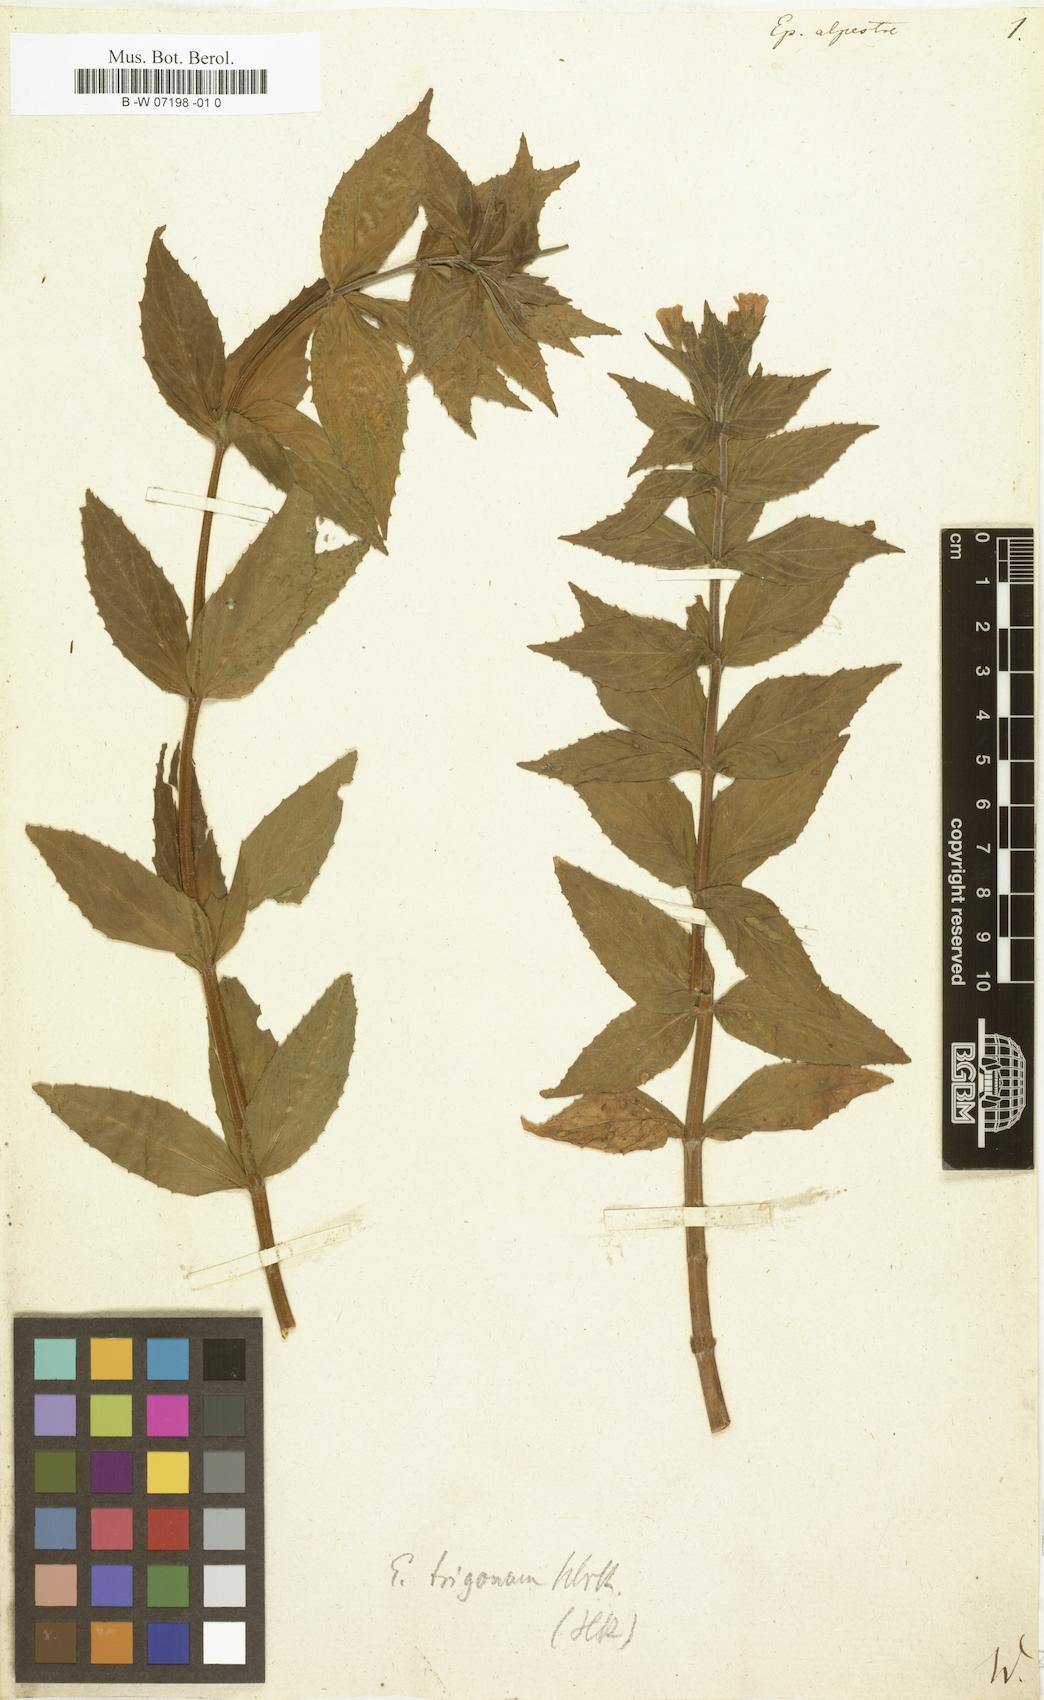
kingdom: Plantae
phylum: Tracheophyta
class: Magnoliopsida
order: Myrtales
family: Onagraceae
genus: Epilobium
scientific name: Epilobium alpestre
